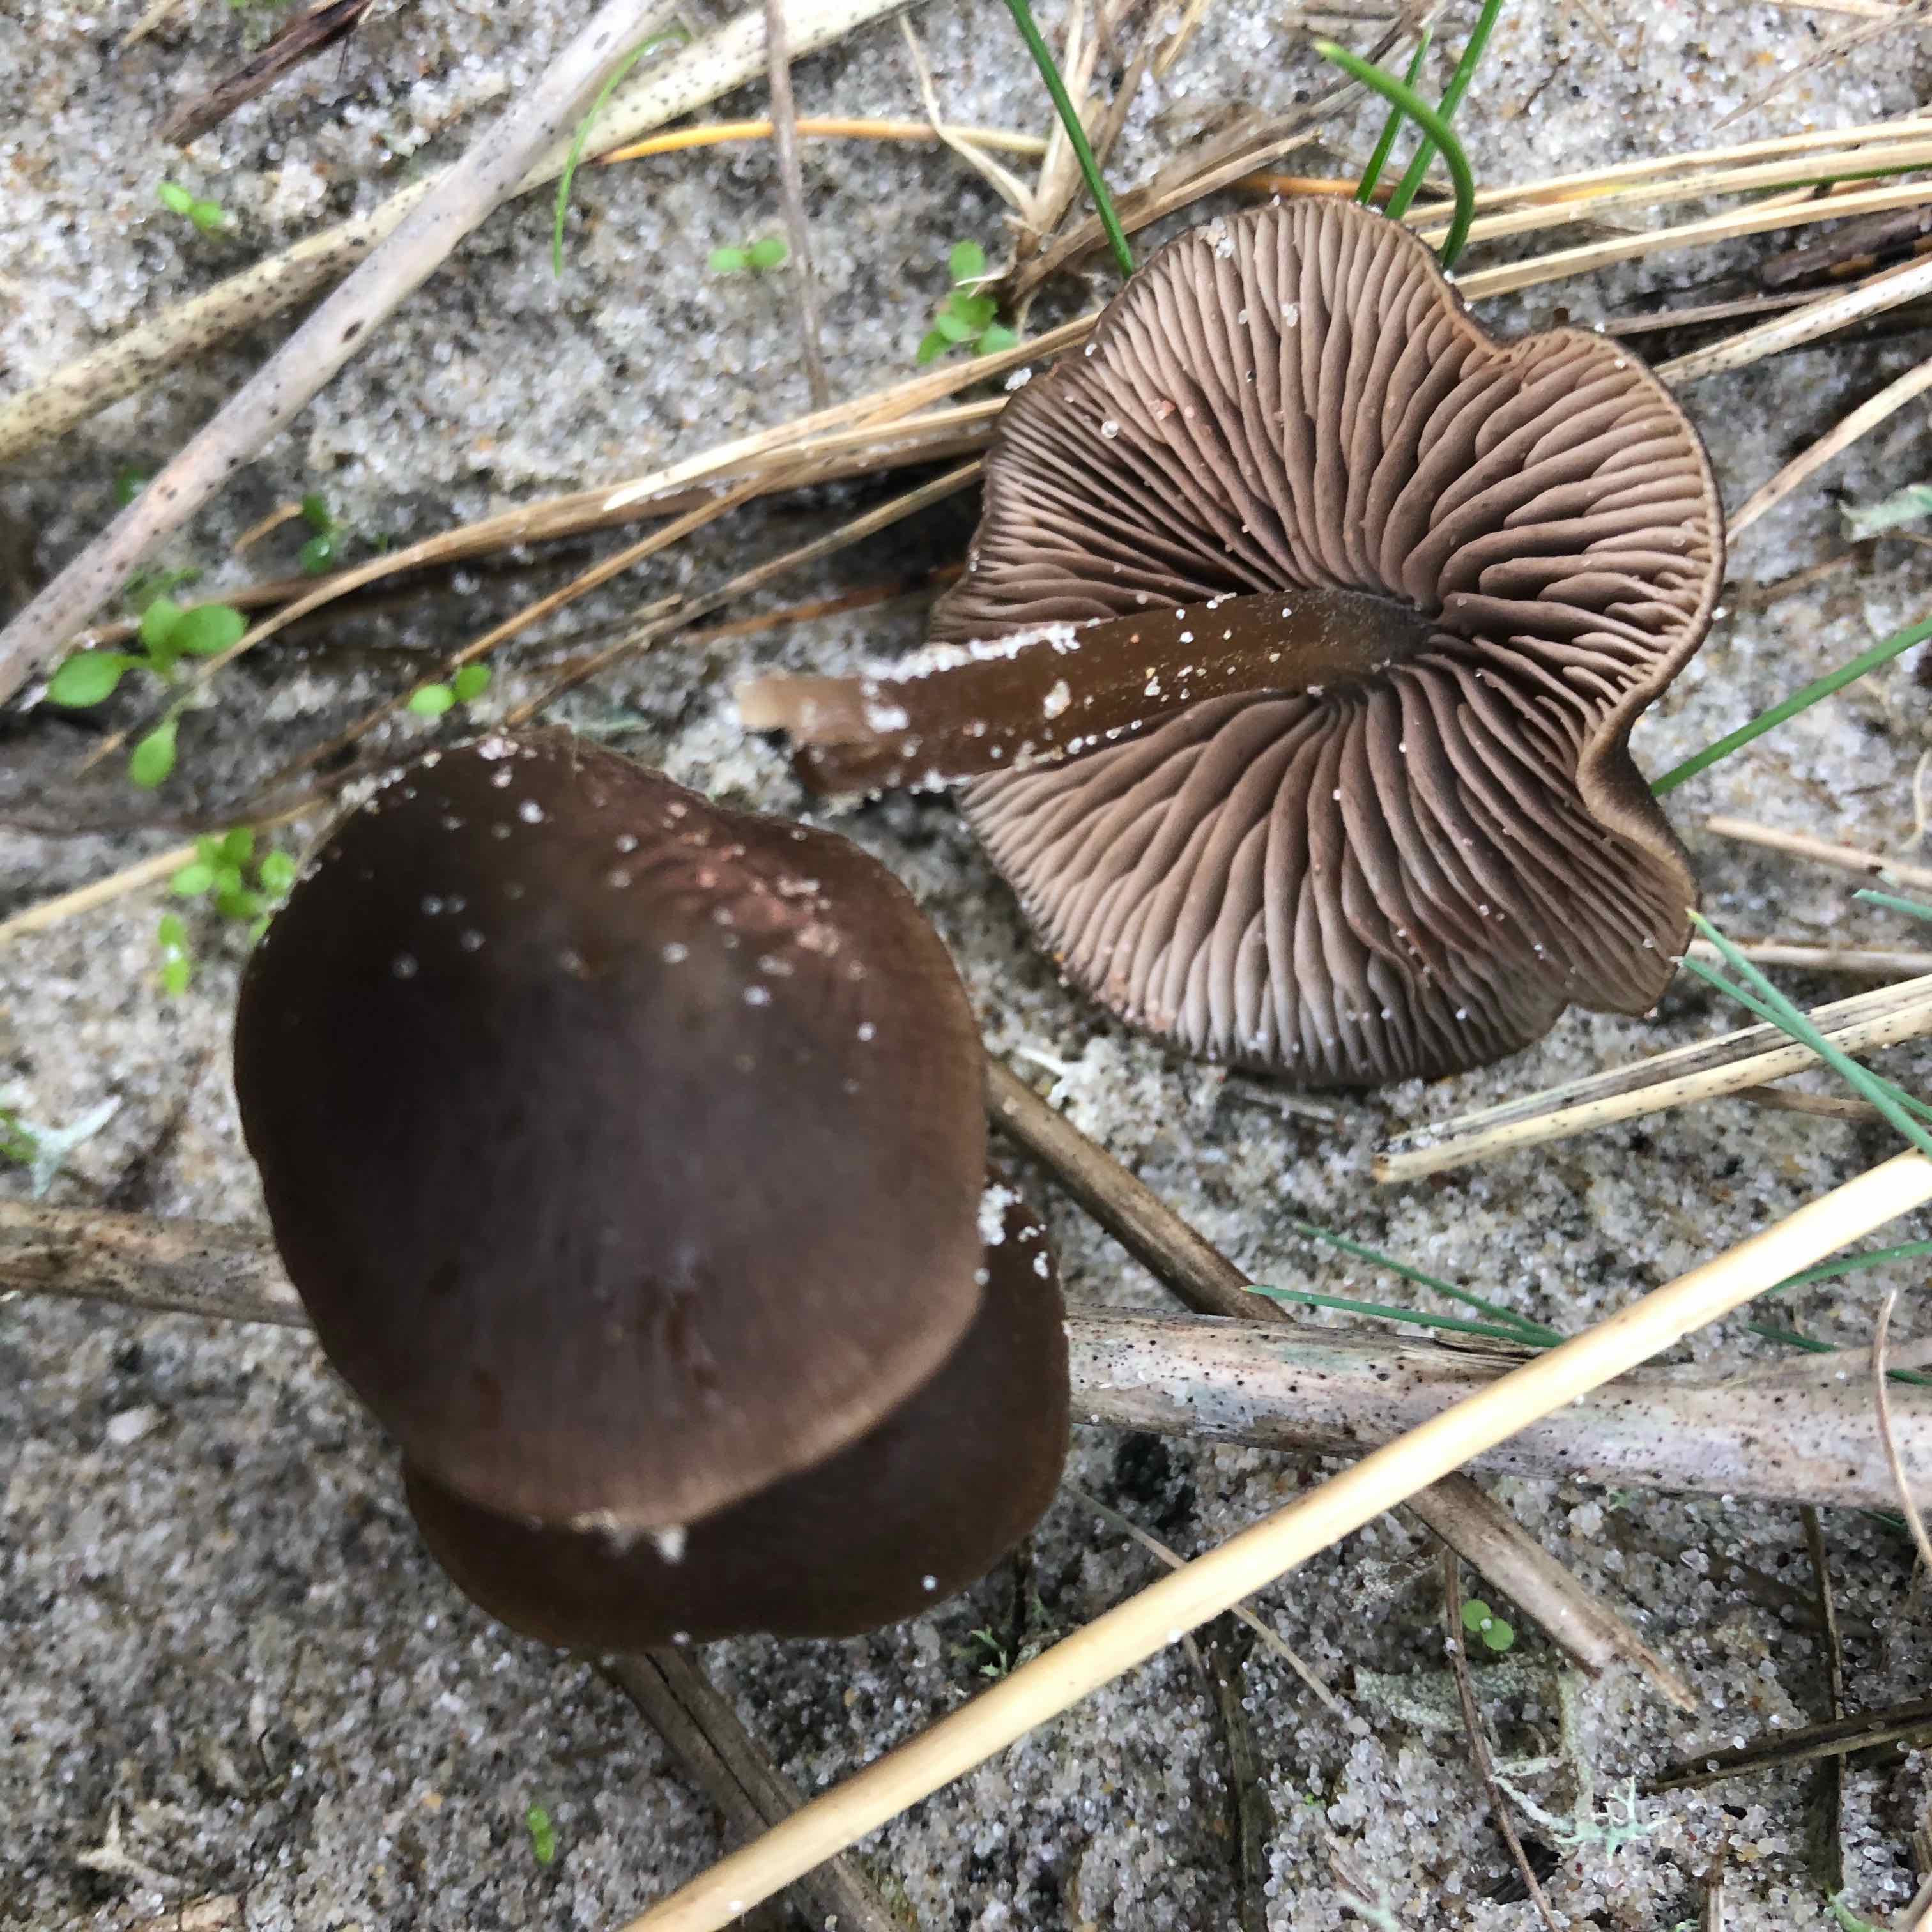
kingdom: Fungi
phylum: Basidiomycota
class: Agaricomycetes
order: Agaricales
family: Entolomataceae
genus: Entoloma
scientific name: Entoloma vindobonense
